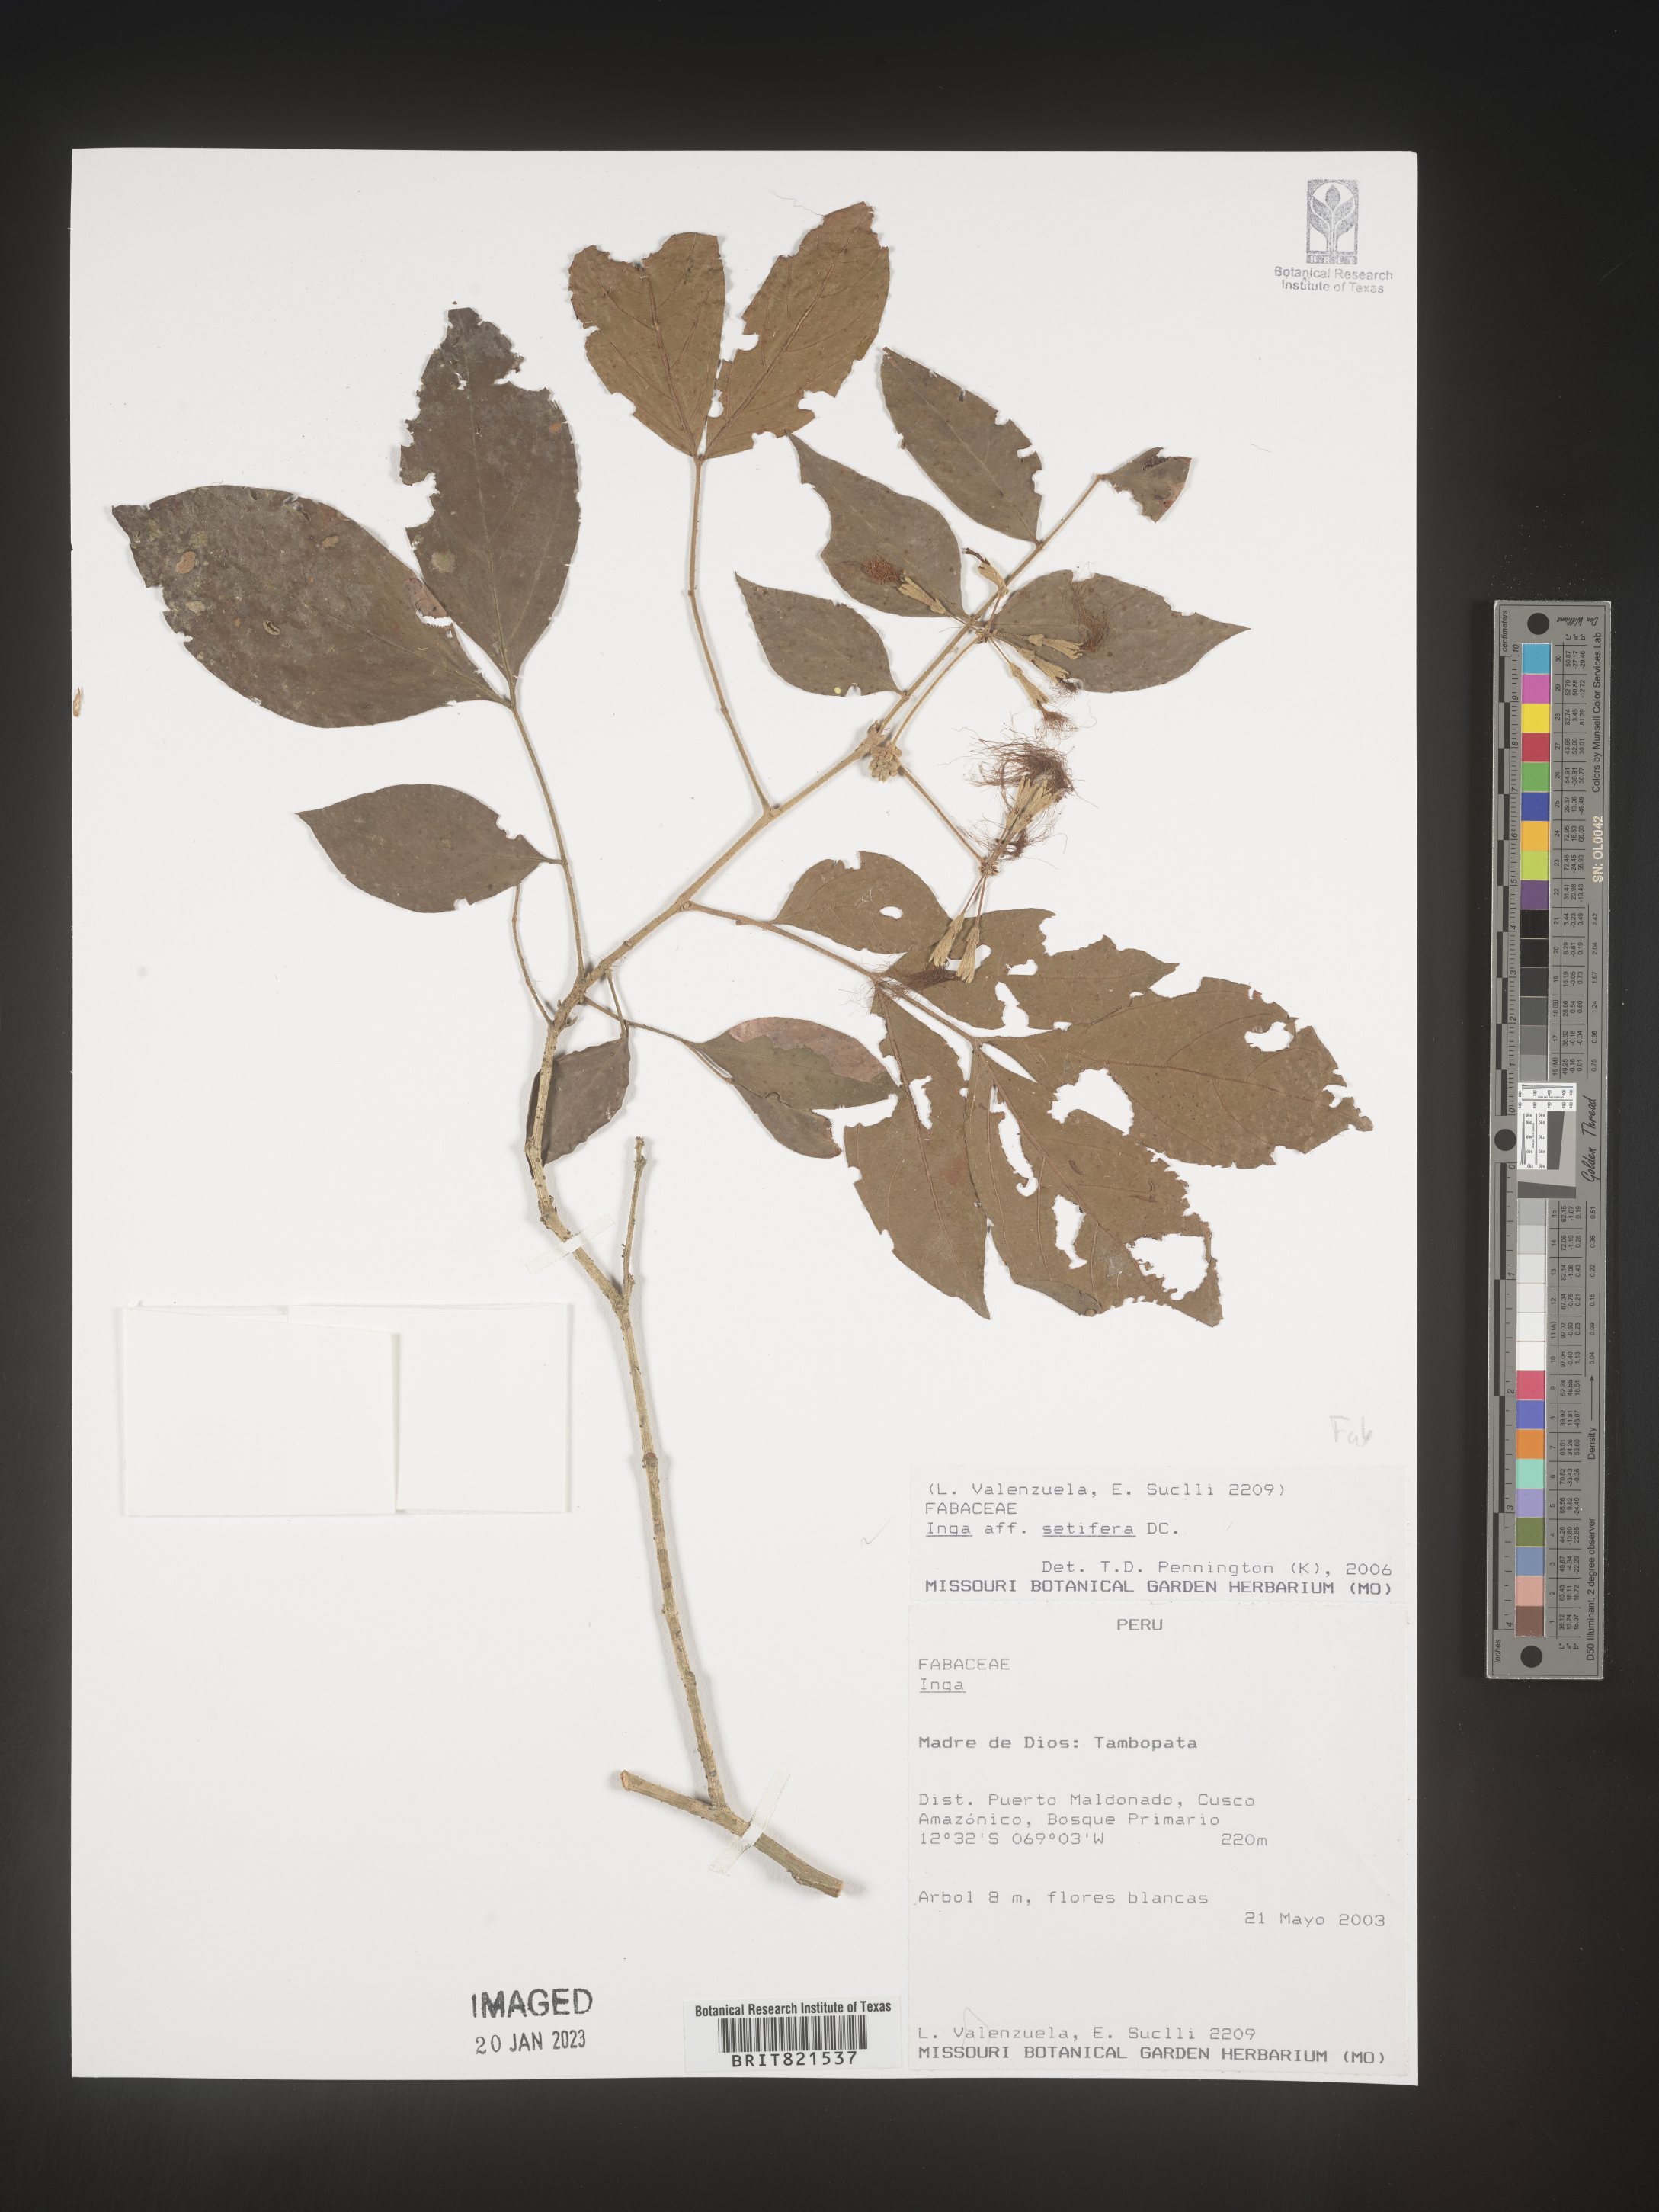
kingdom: Plantae
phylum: Tracheophyta
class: Magnoliopsida
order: Fabales
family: Fabaceae
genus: Inga
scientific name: Inga
